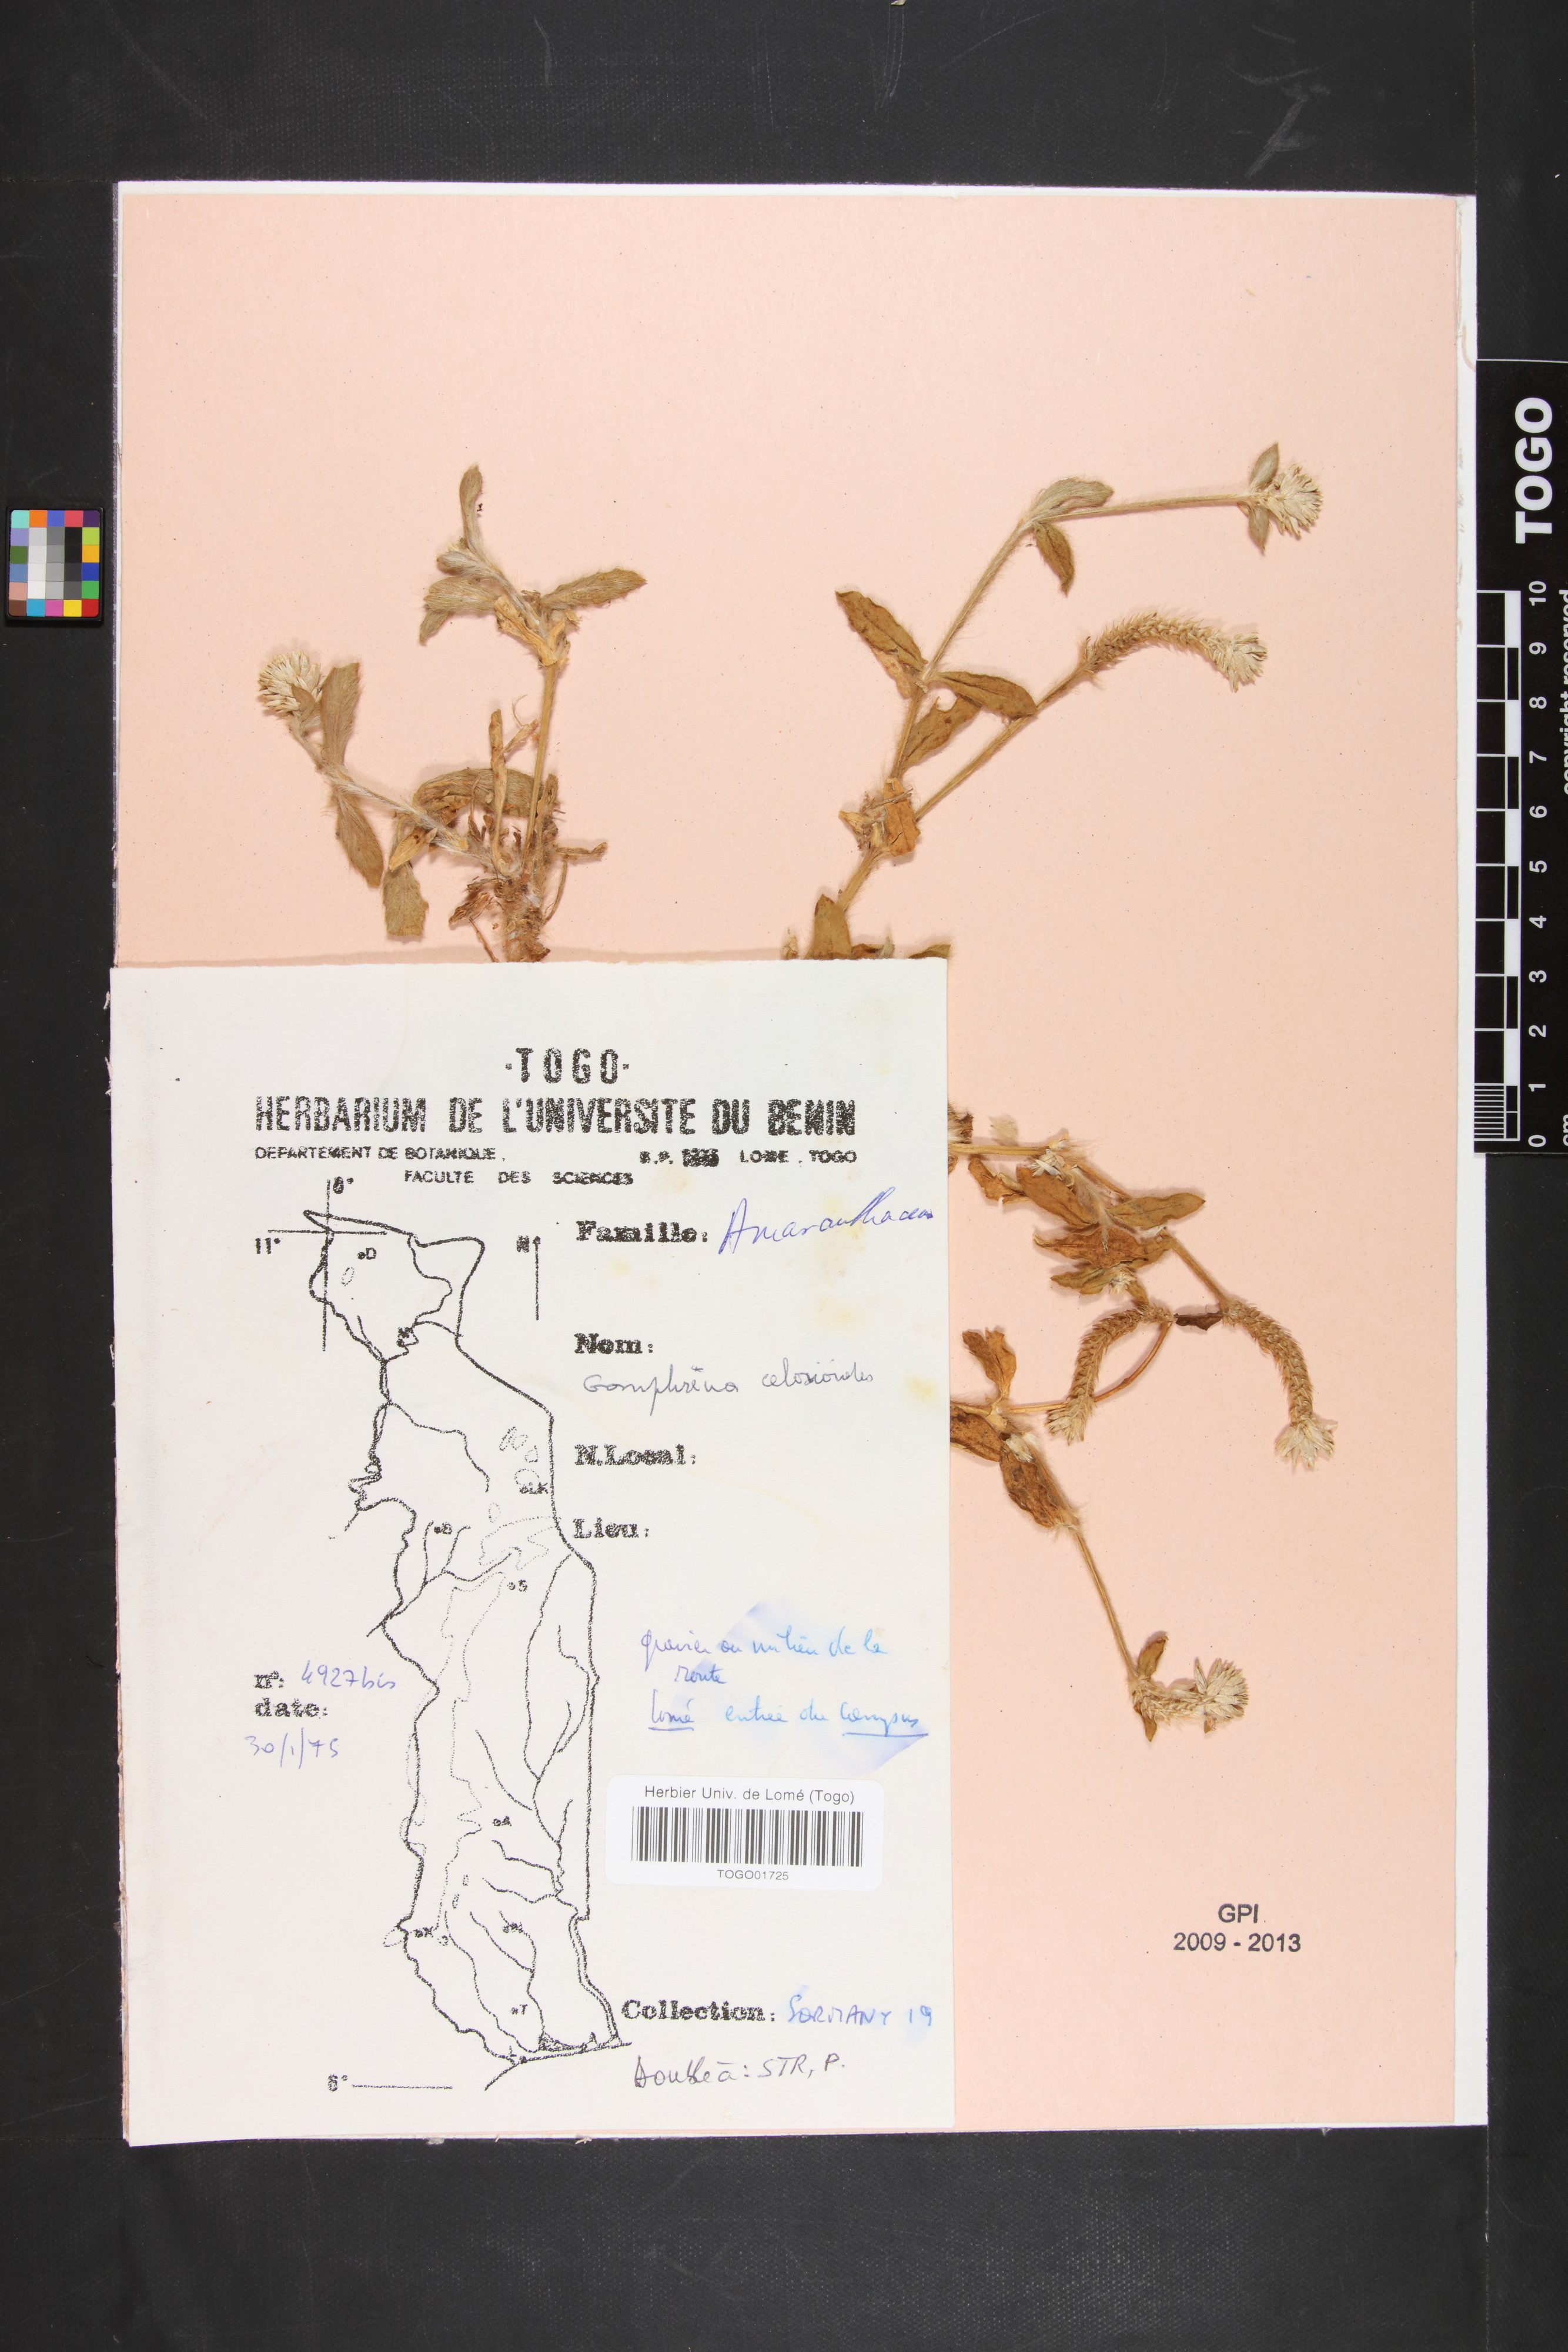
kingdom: Plantae
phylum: Tracheophyta
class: Magnoliopsida
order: Caryophyllales
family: Amaranthaceae
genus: Gomphrena
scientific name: Gomphrena celosioides
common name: Gomphrena-weed
